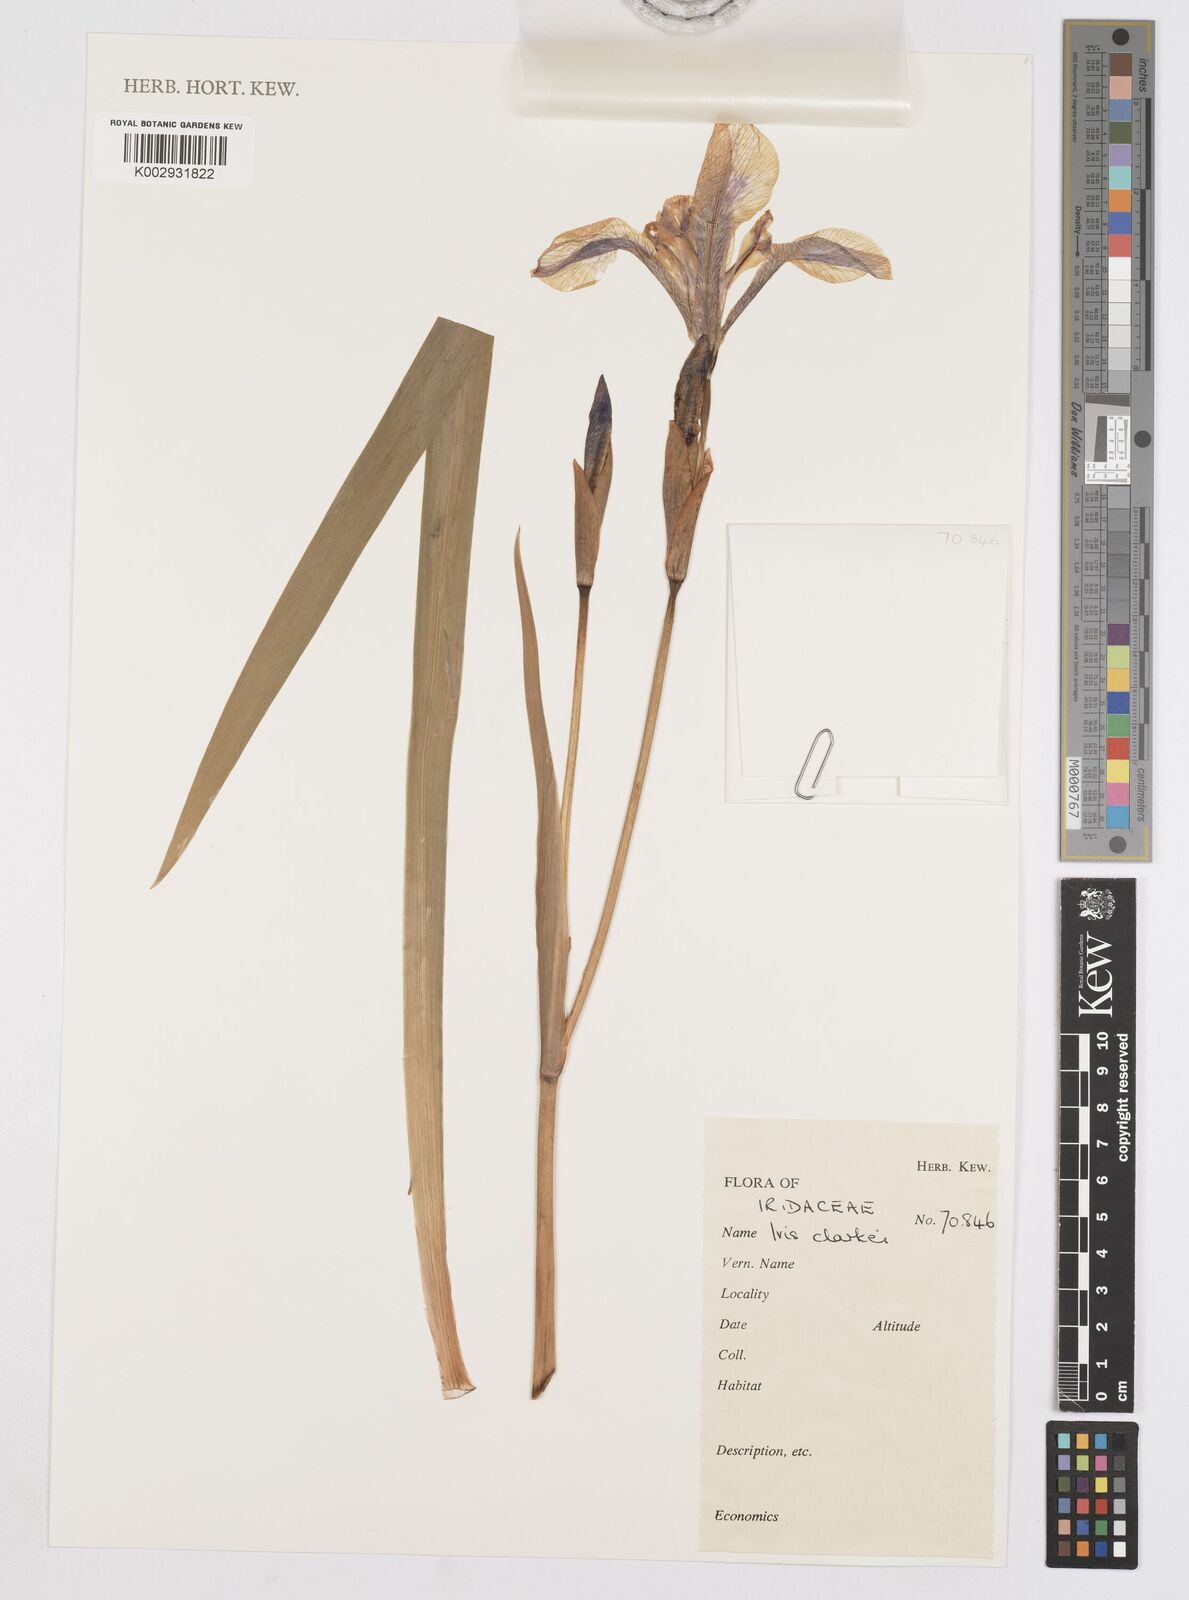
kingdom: Plantae
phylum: Tracheophyta
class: Liliopsida
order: Asparagales
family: Iridaceae
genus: Iris
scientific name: Iris clarkei
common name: Tibet iris
